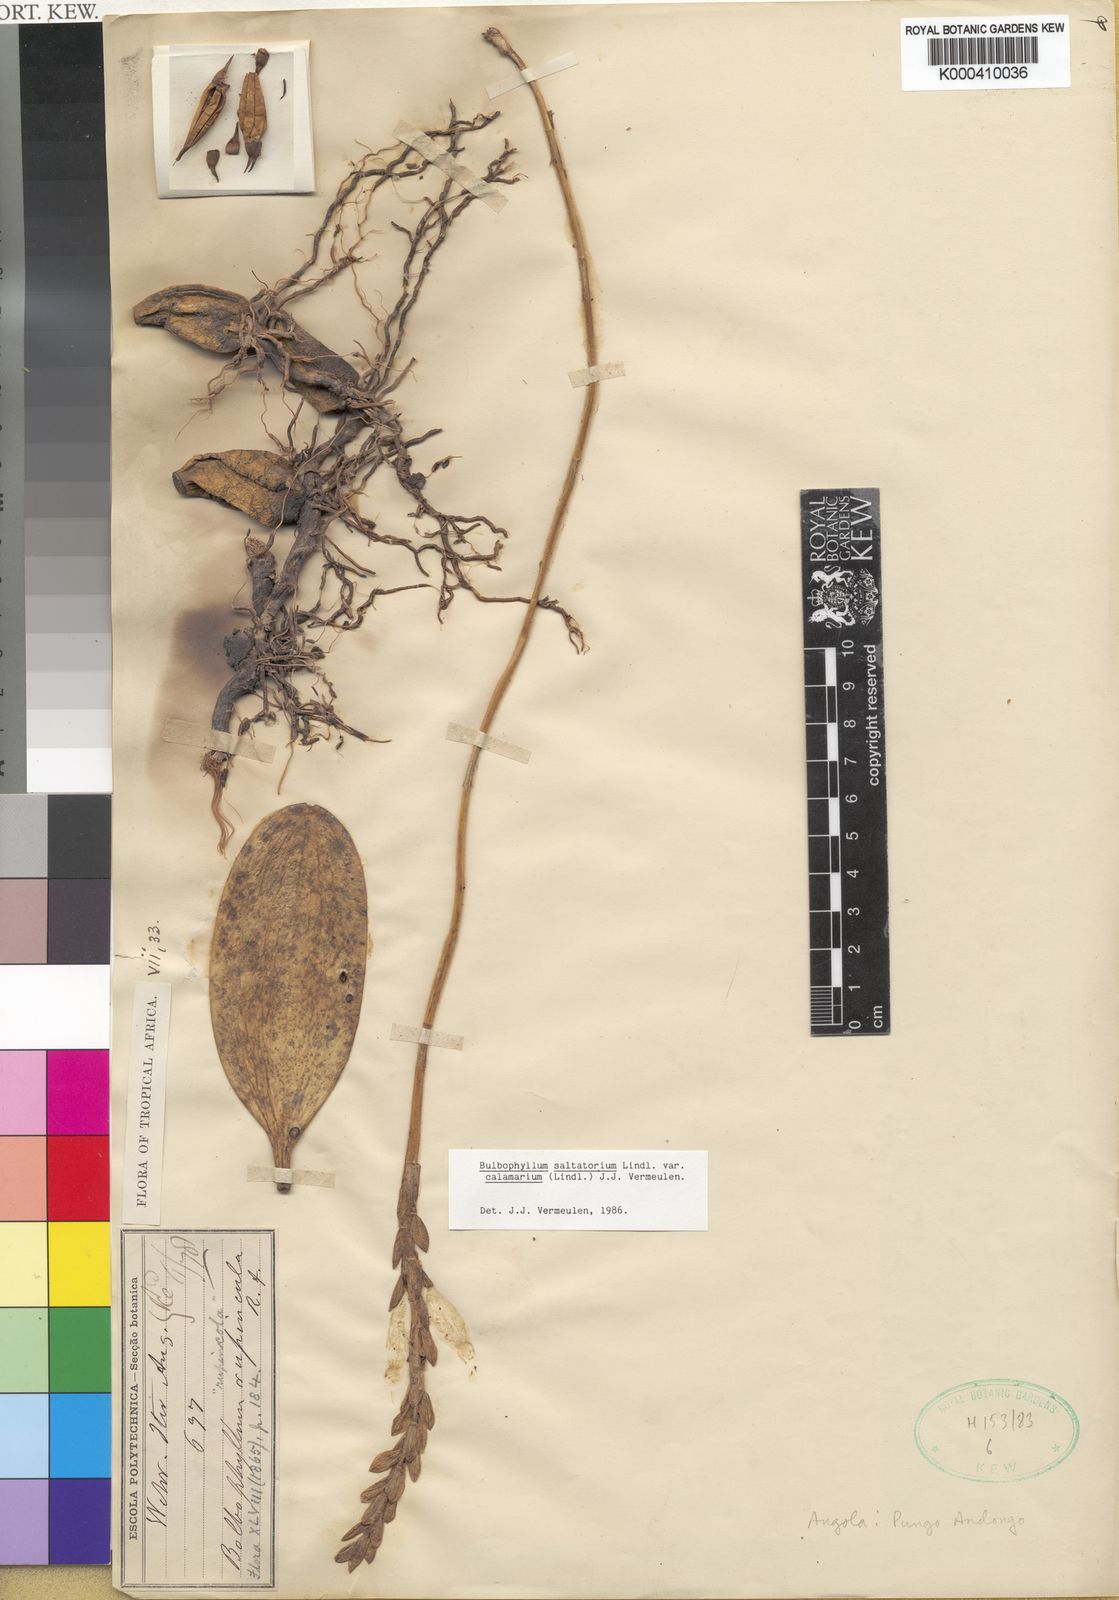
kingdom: Plantae
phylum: Tracheophyta
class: Liliopsida
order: Asparagales
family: Orchidaceae
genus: Bulbophyllum
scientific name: Bulbophyllum saltatorium
